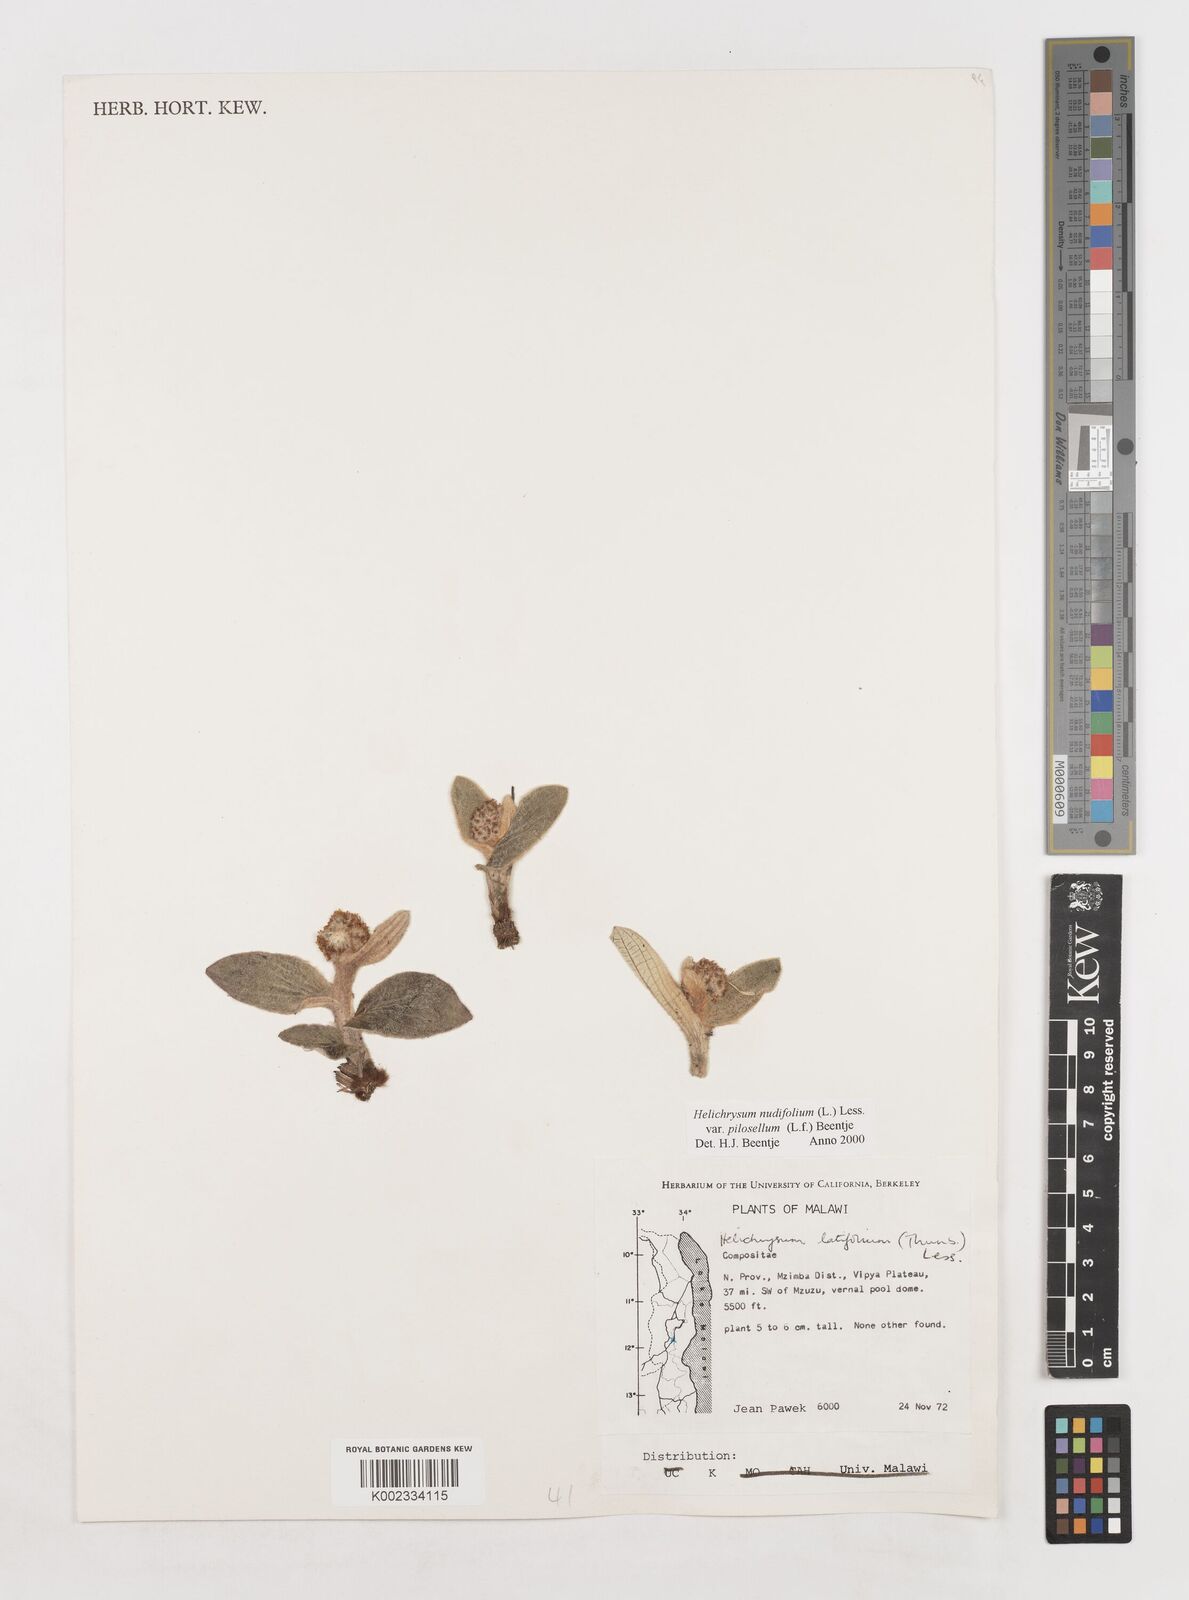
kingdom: Plantae
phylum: Tracheophyta
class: Magnoliopsida
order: Asterales
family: Asteraceae
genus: Helichrysum
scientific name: Helichrysum nudifolium
